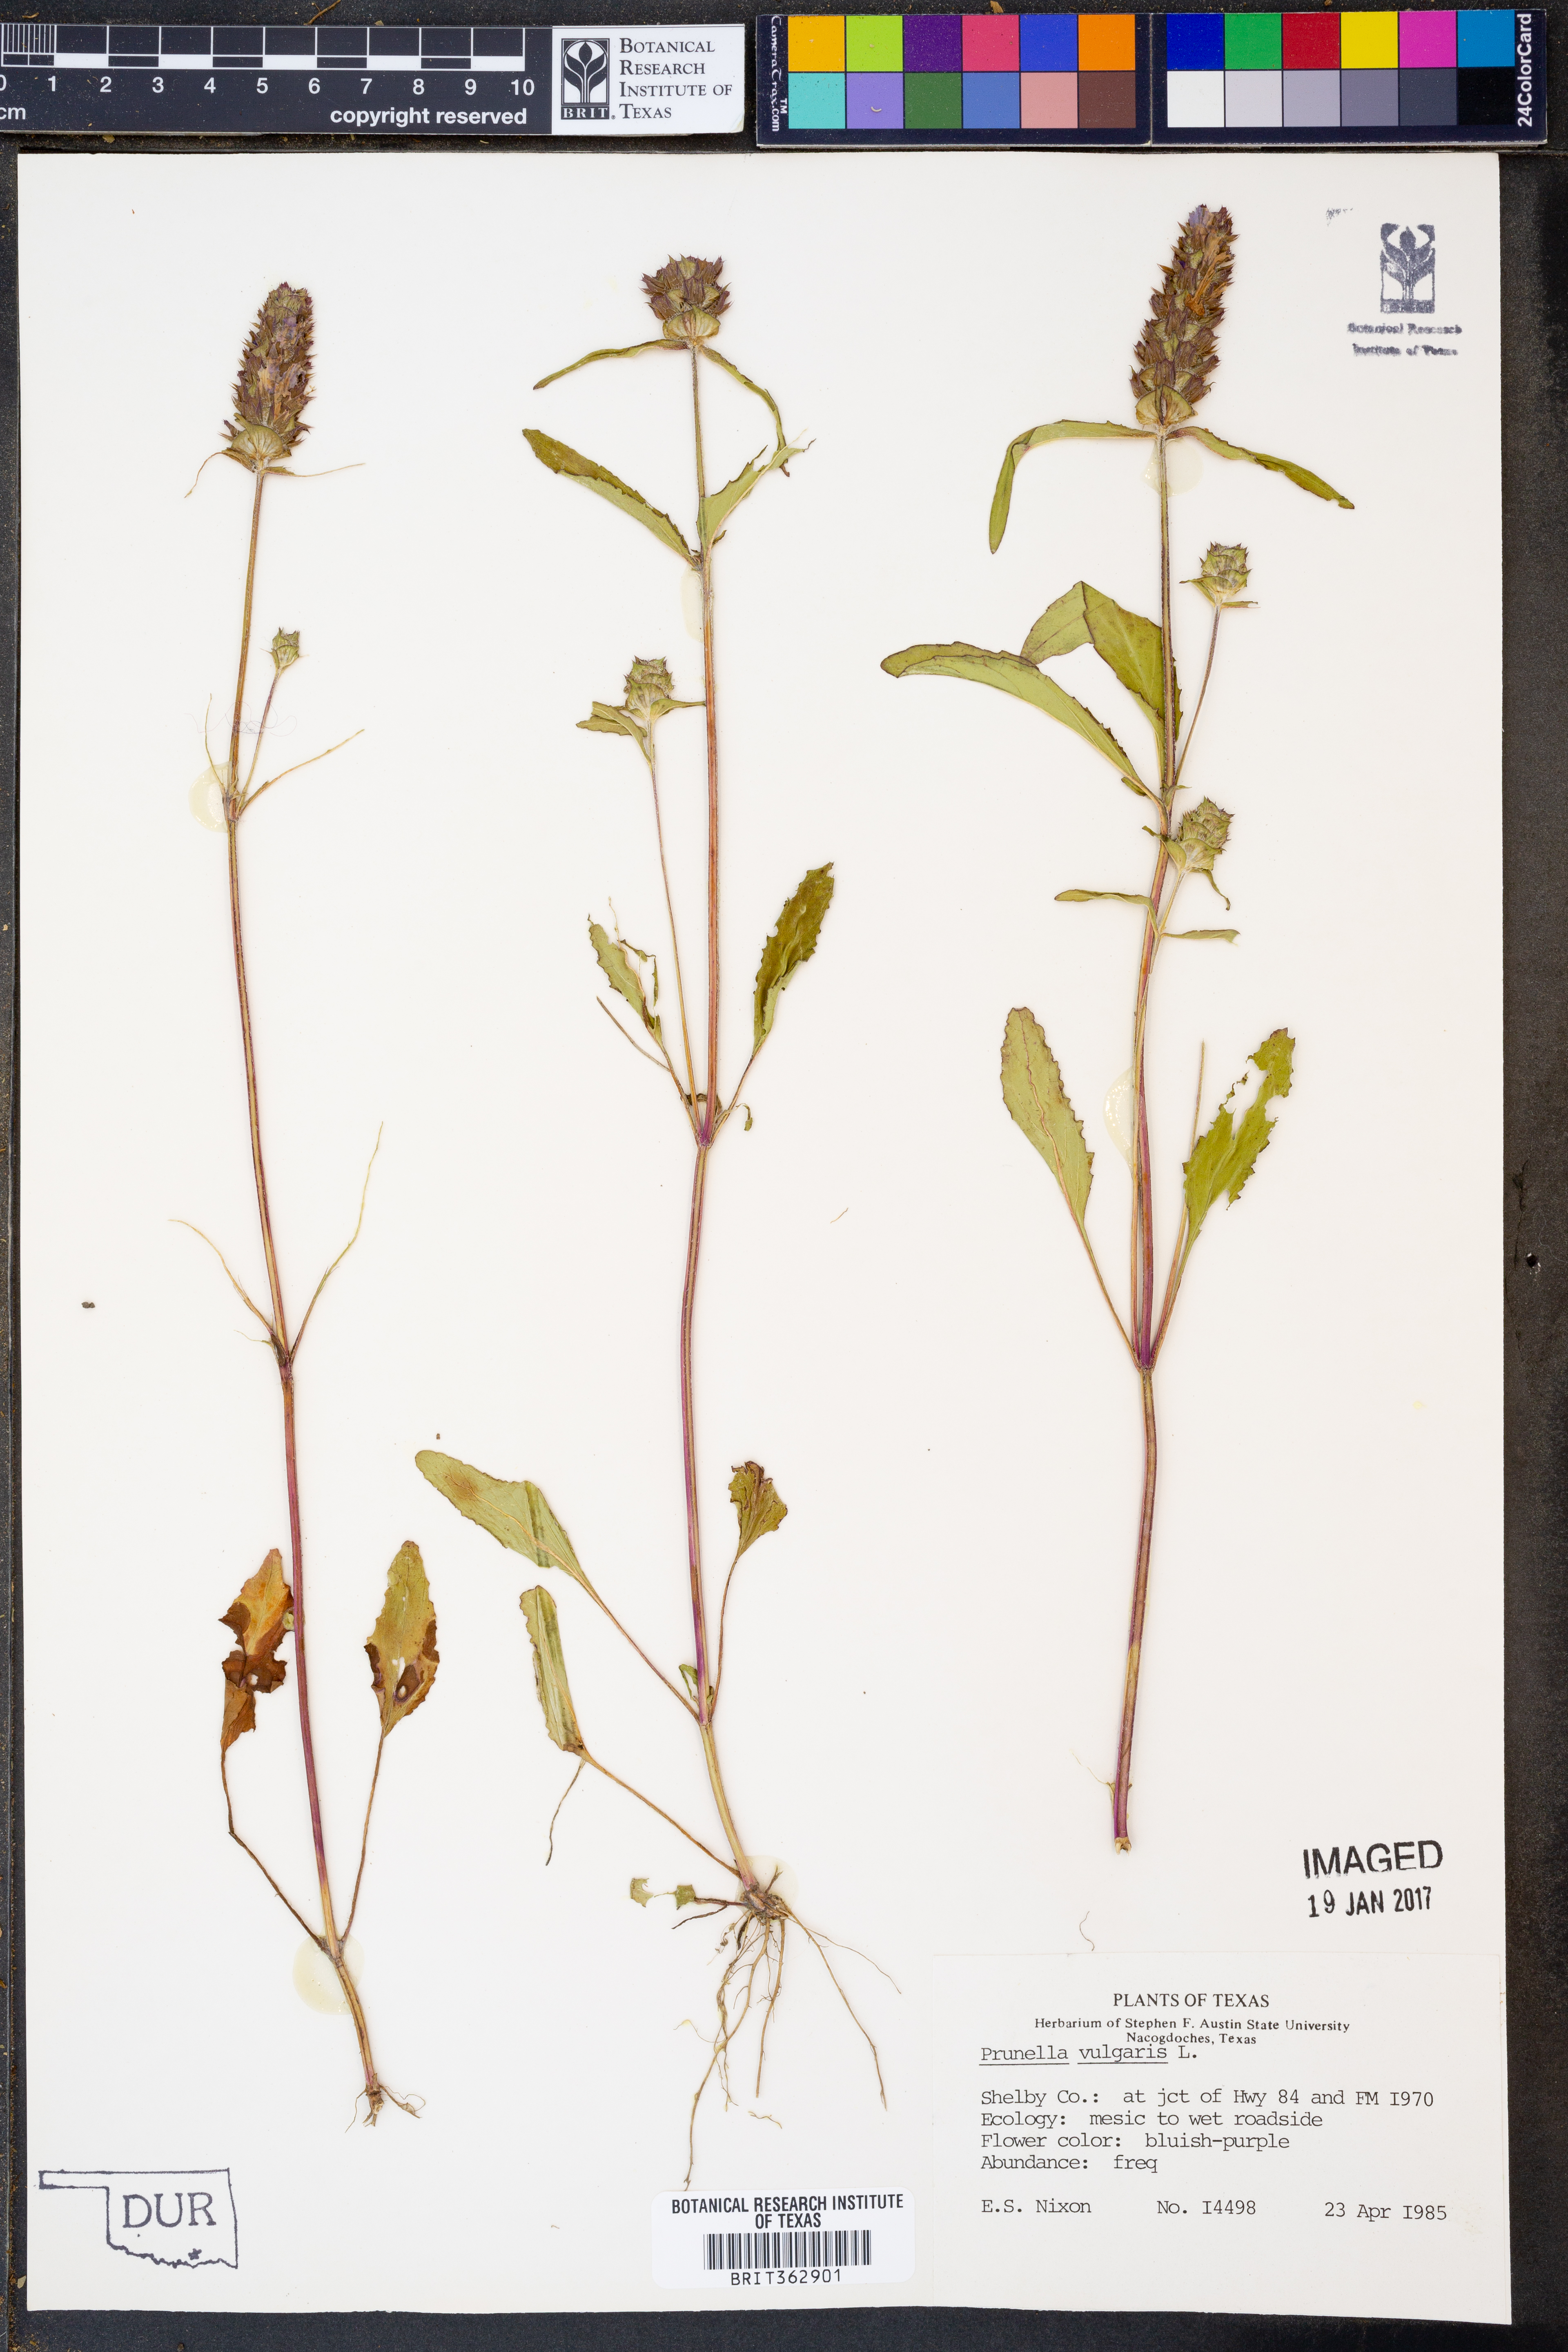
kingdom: Plantae
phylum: Tracheophyta
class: Magnoliopsida
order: Lamiales
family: Lamiaceae
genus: Prunella
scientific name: Prunella vulgaris
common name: Heal-all
